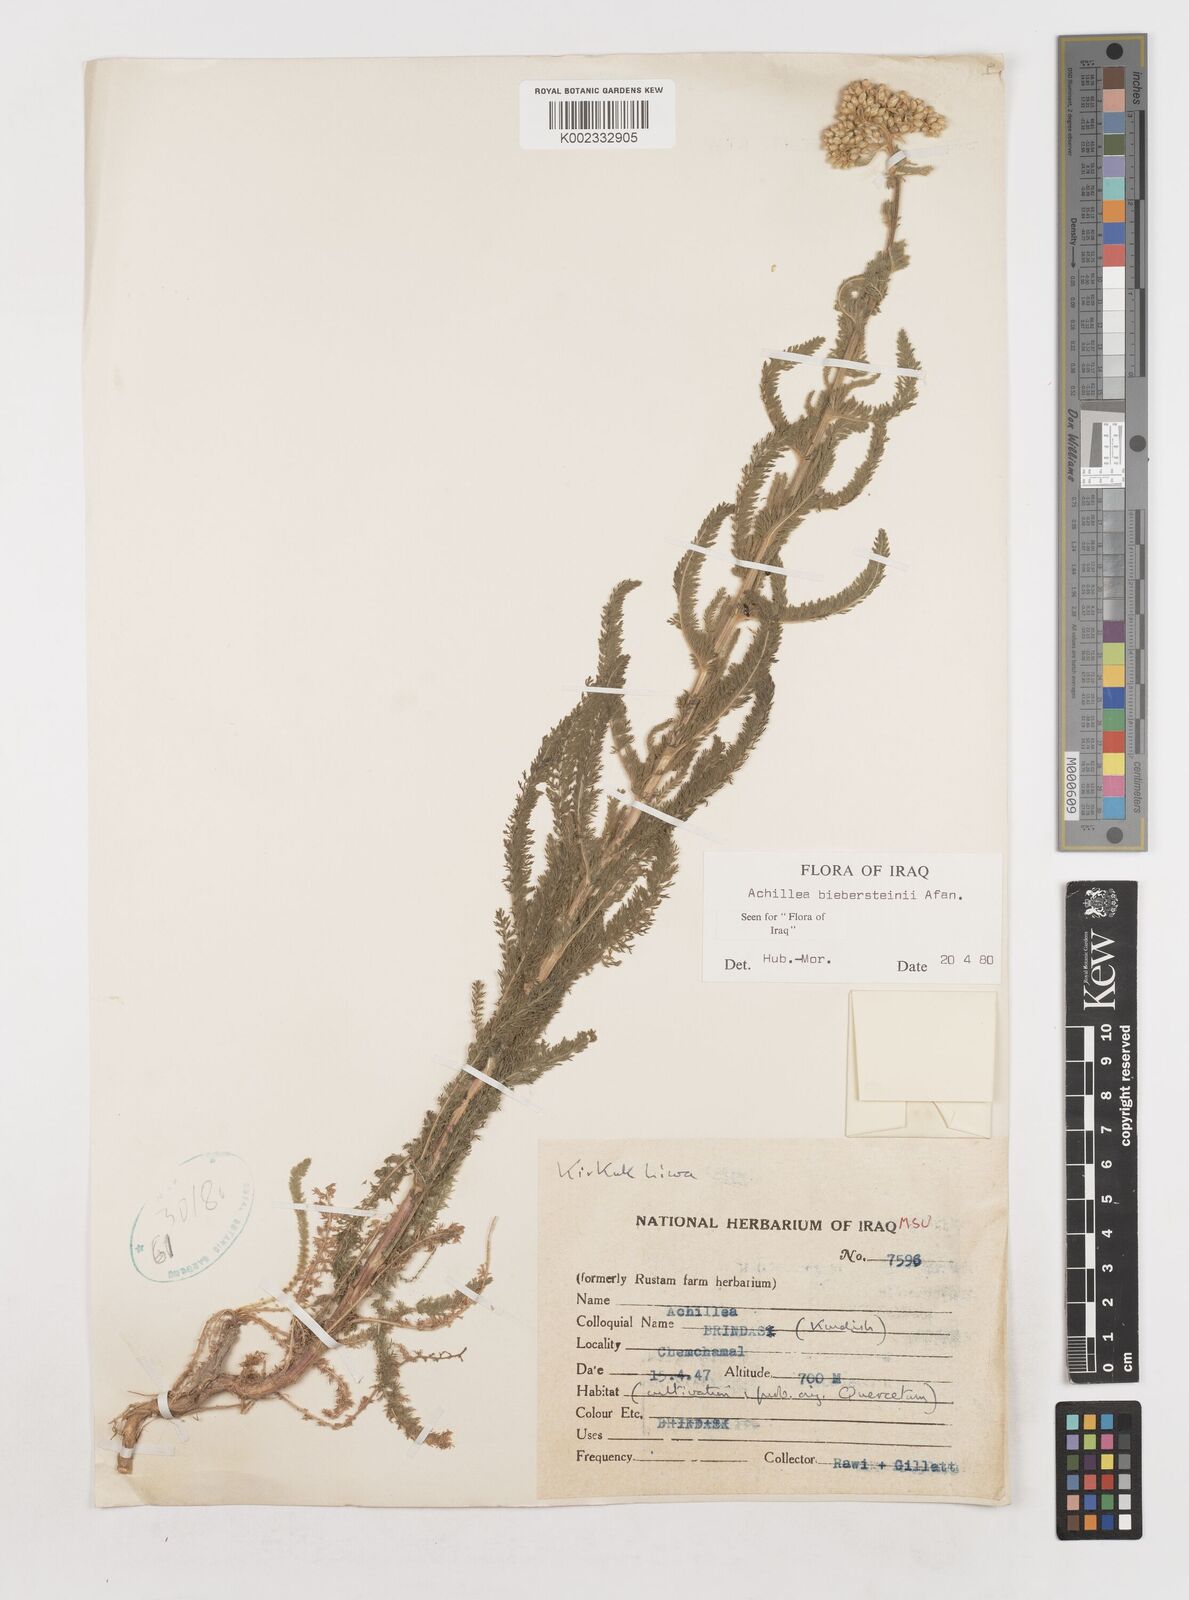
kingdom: Plantae
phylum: Tracheophyta
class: Magnoliopsida
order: Asterales
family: Asteraceae
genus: Achillea
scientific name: Achillea arabica
